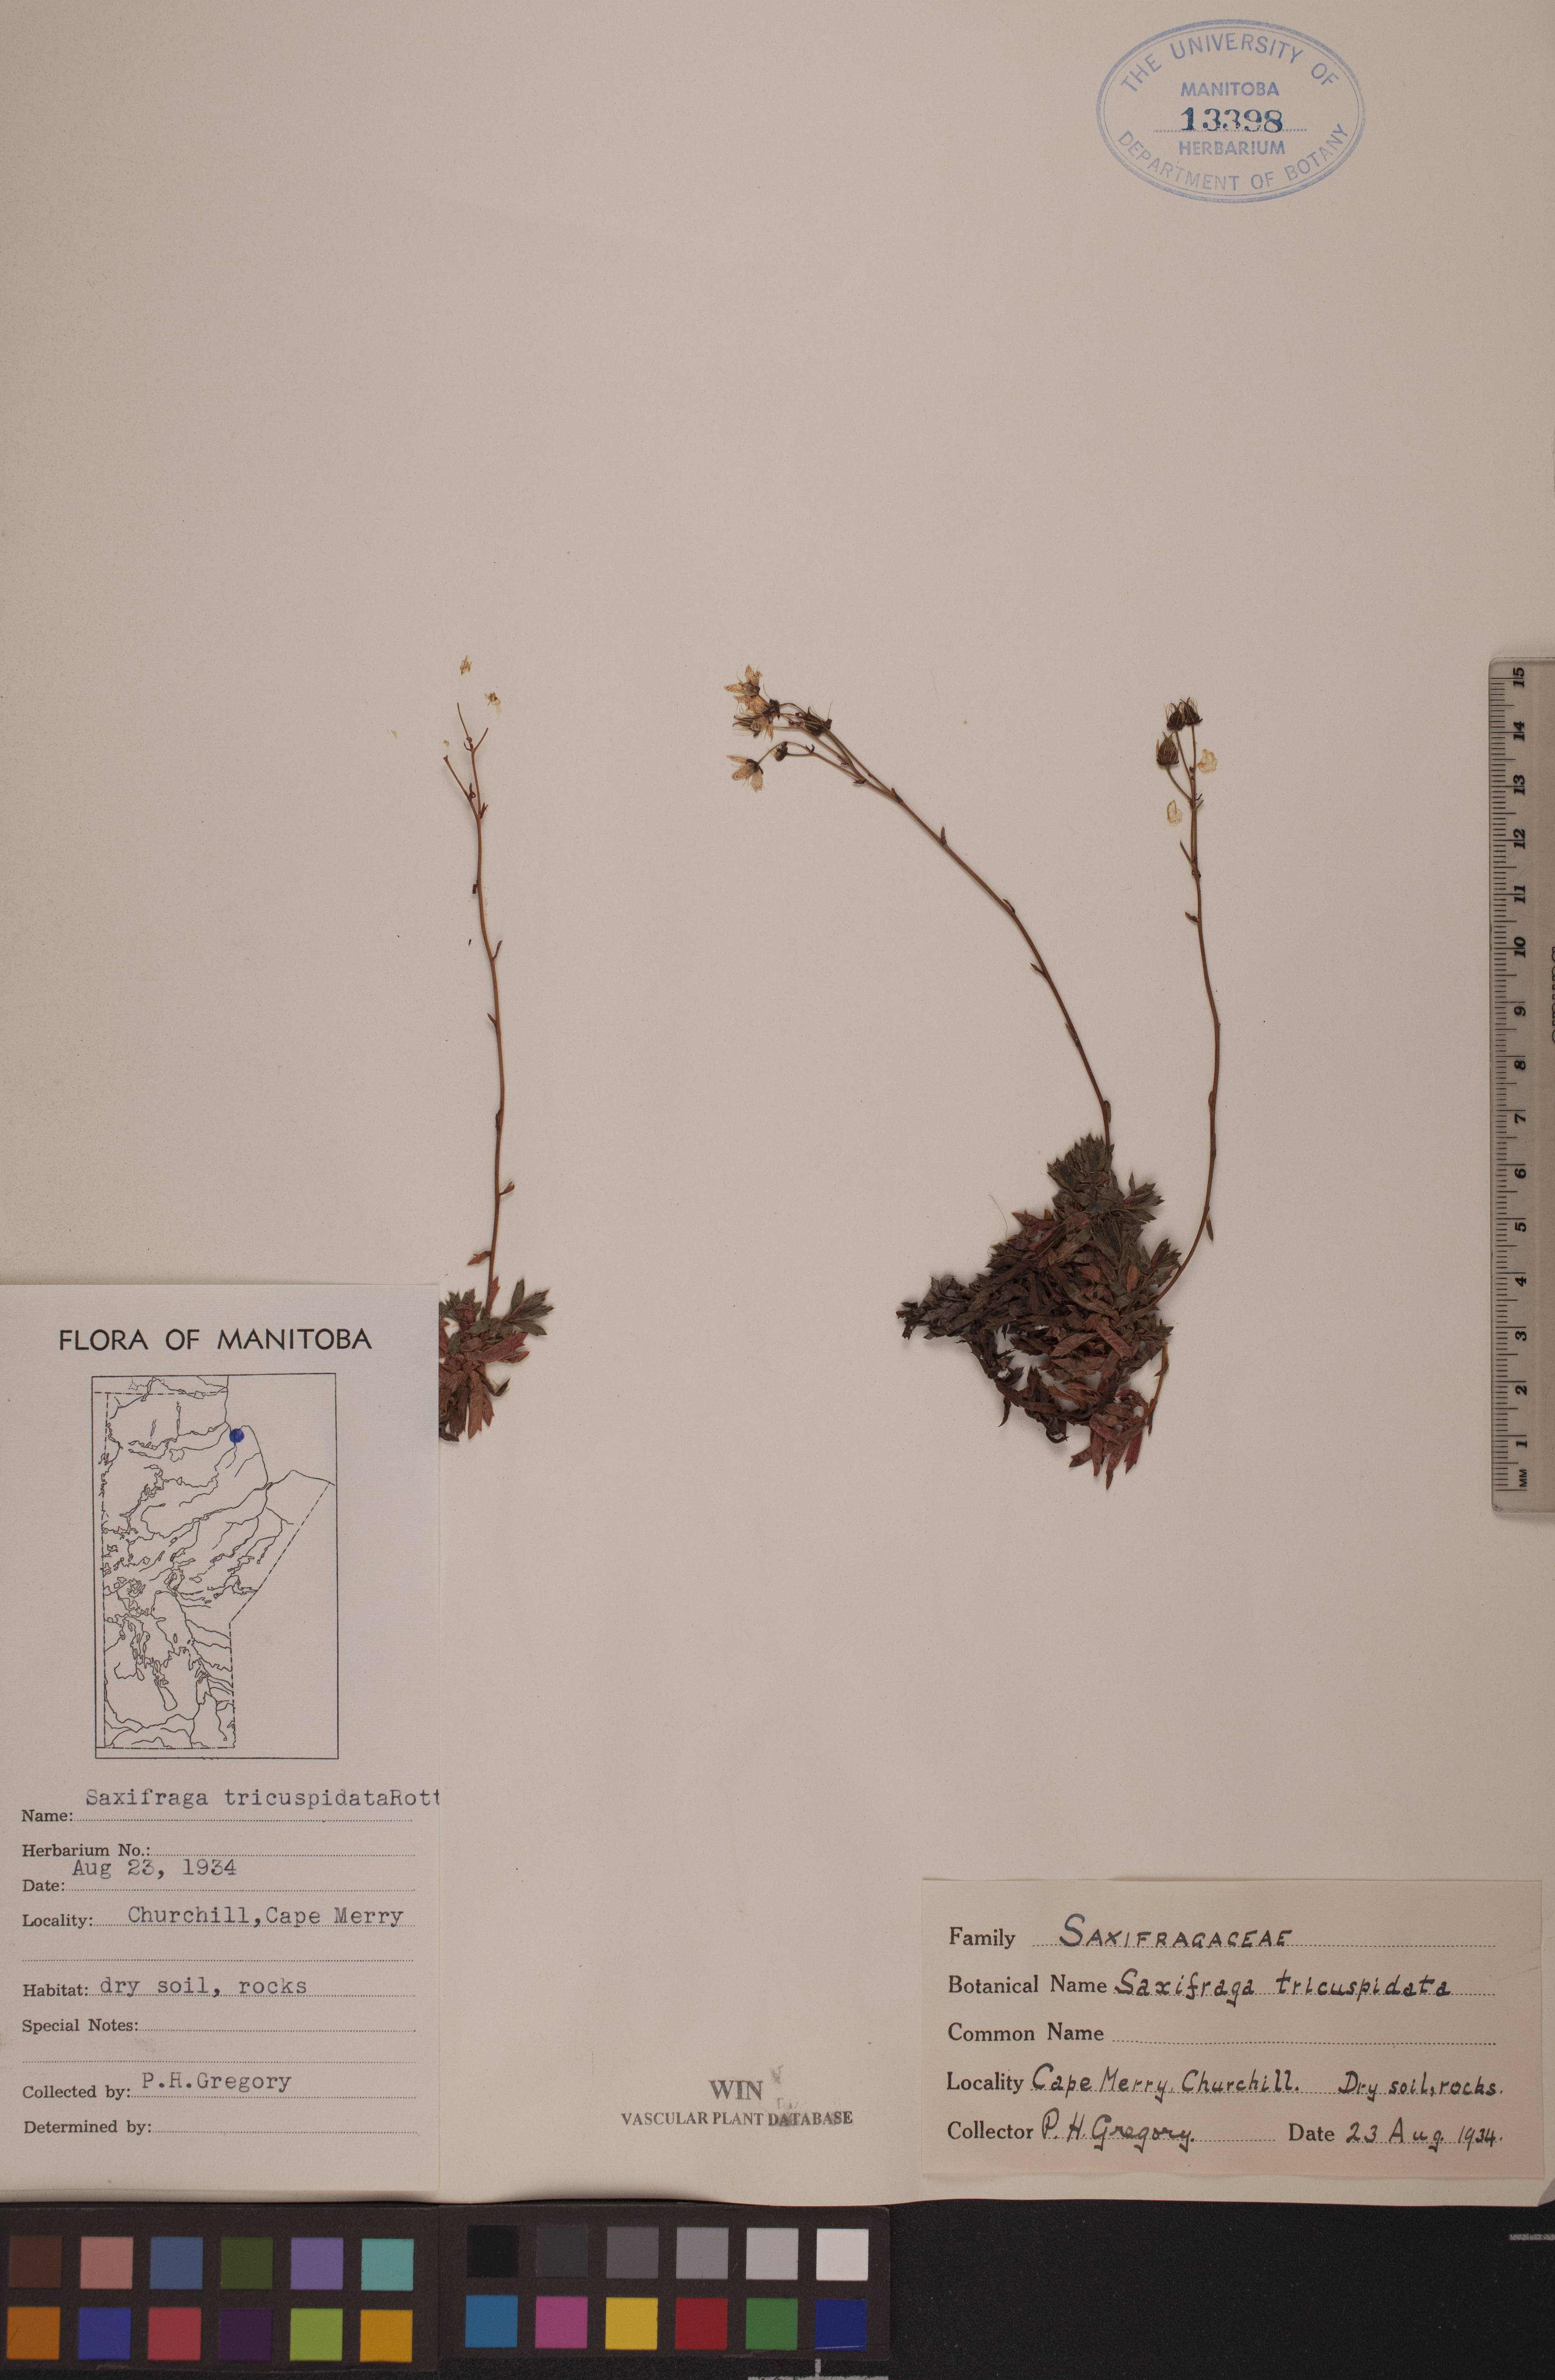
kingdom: Plantae
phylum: Tracheophyta
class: Magnoliopsida
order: Saxifragales
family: Saxifragaceae
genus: Saxifraga
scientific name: Saxifraga tricuspidata
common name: Prickly saxifrage
